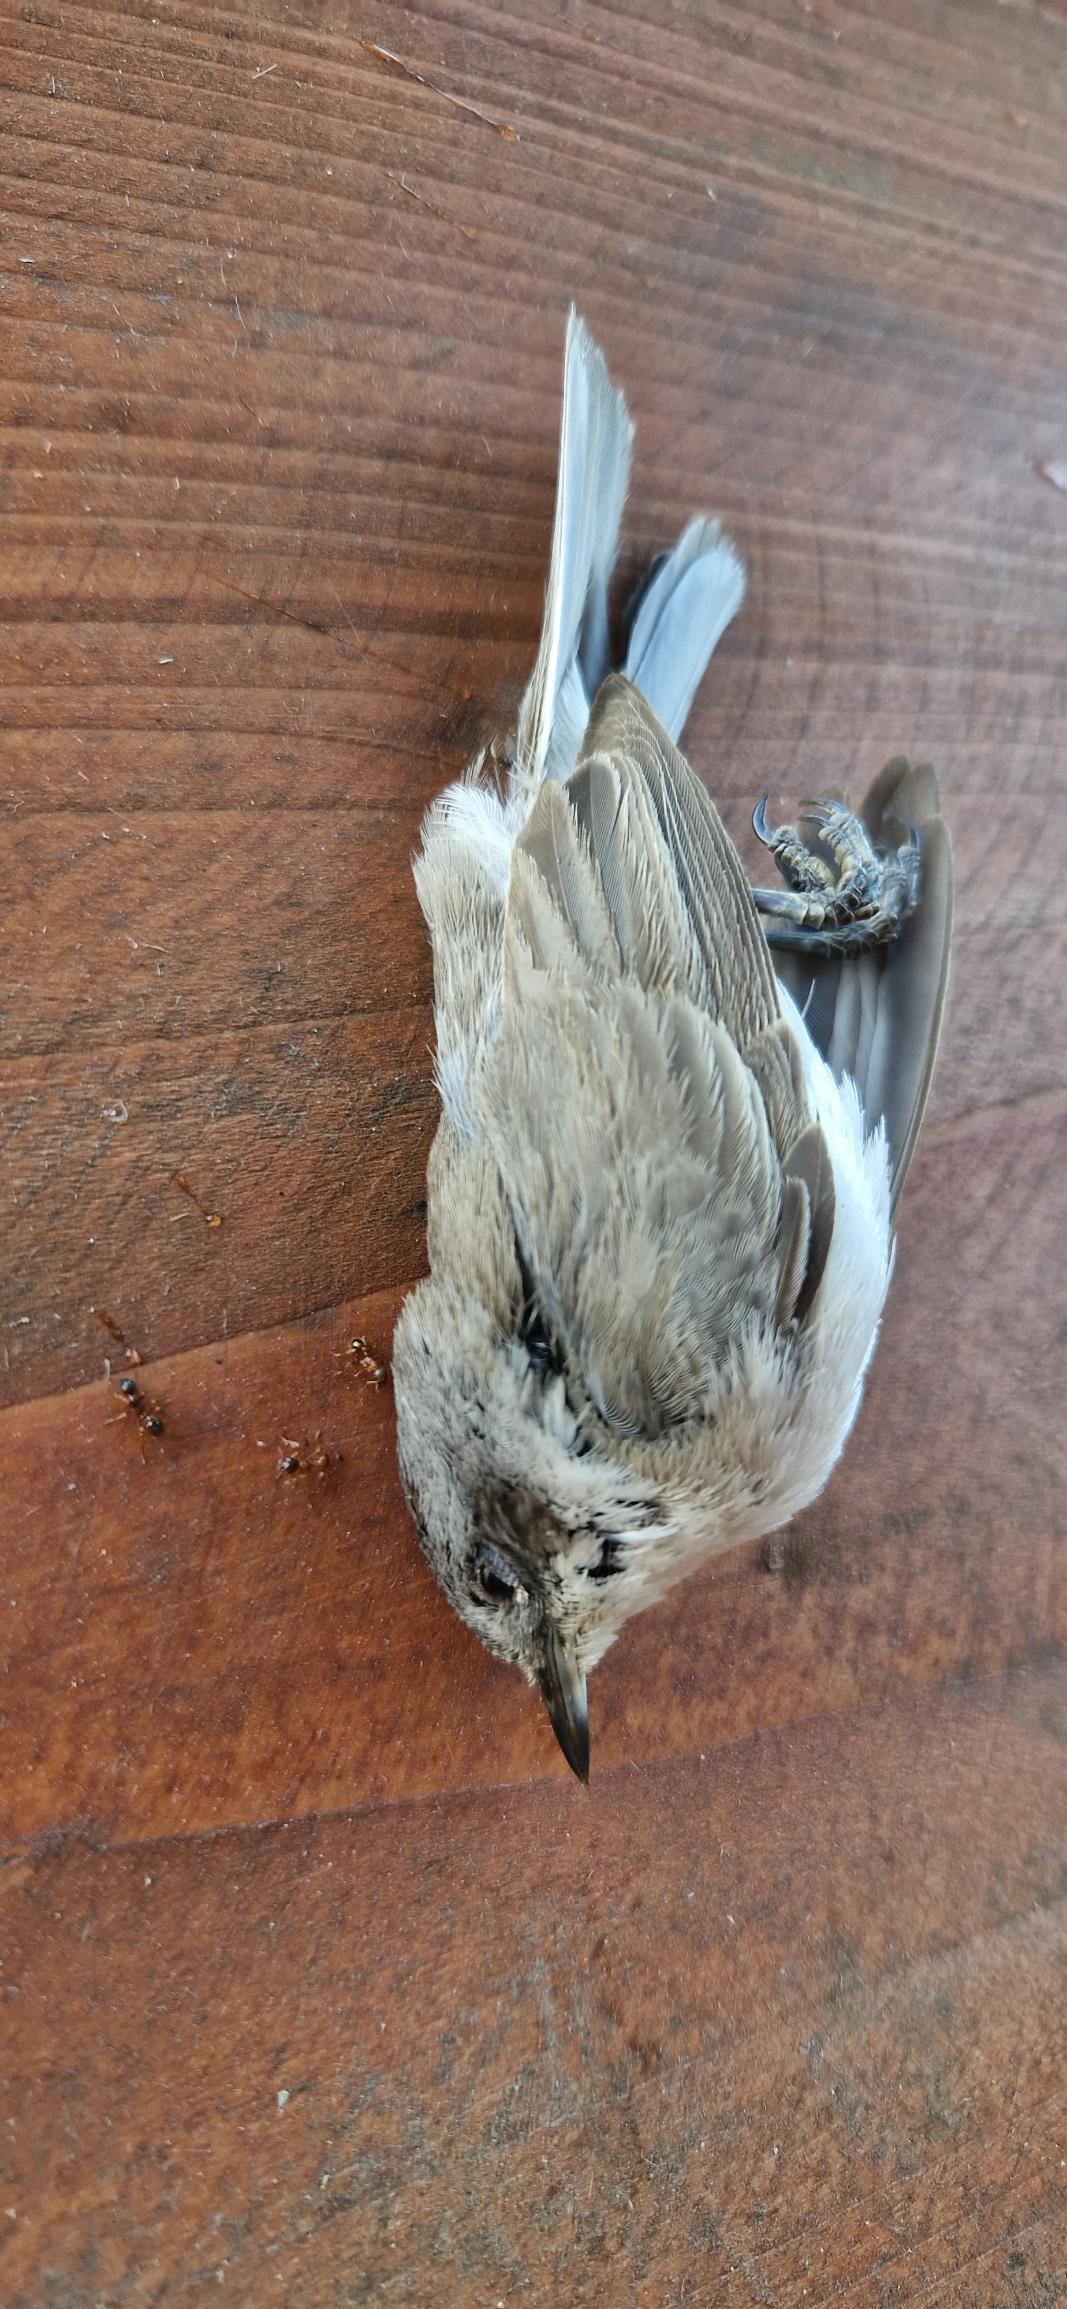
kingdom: Animalia
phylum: Chordata
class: Aves
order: Passeriformes
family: Sylviidae
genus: Sylvia
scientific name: Sylvia curruca
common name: Gærdesanger
